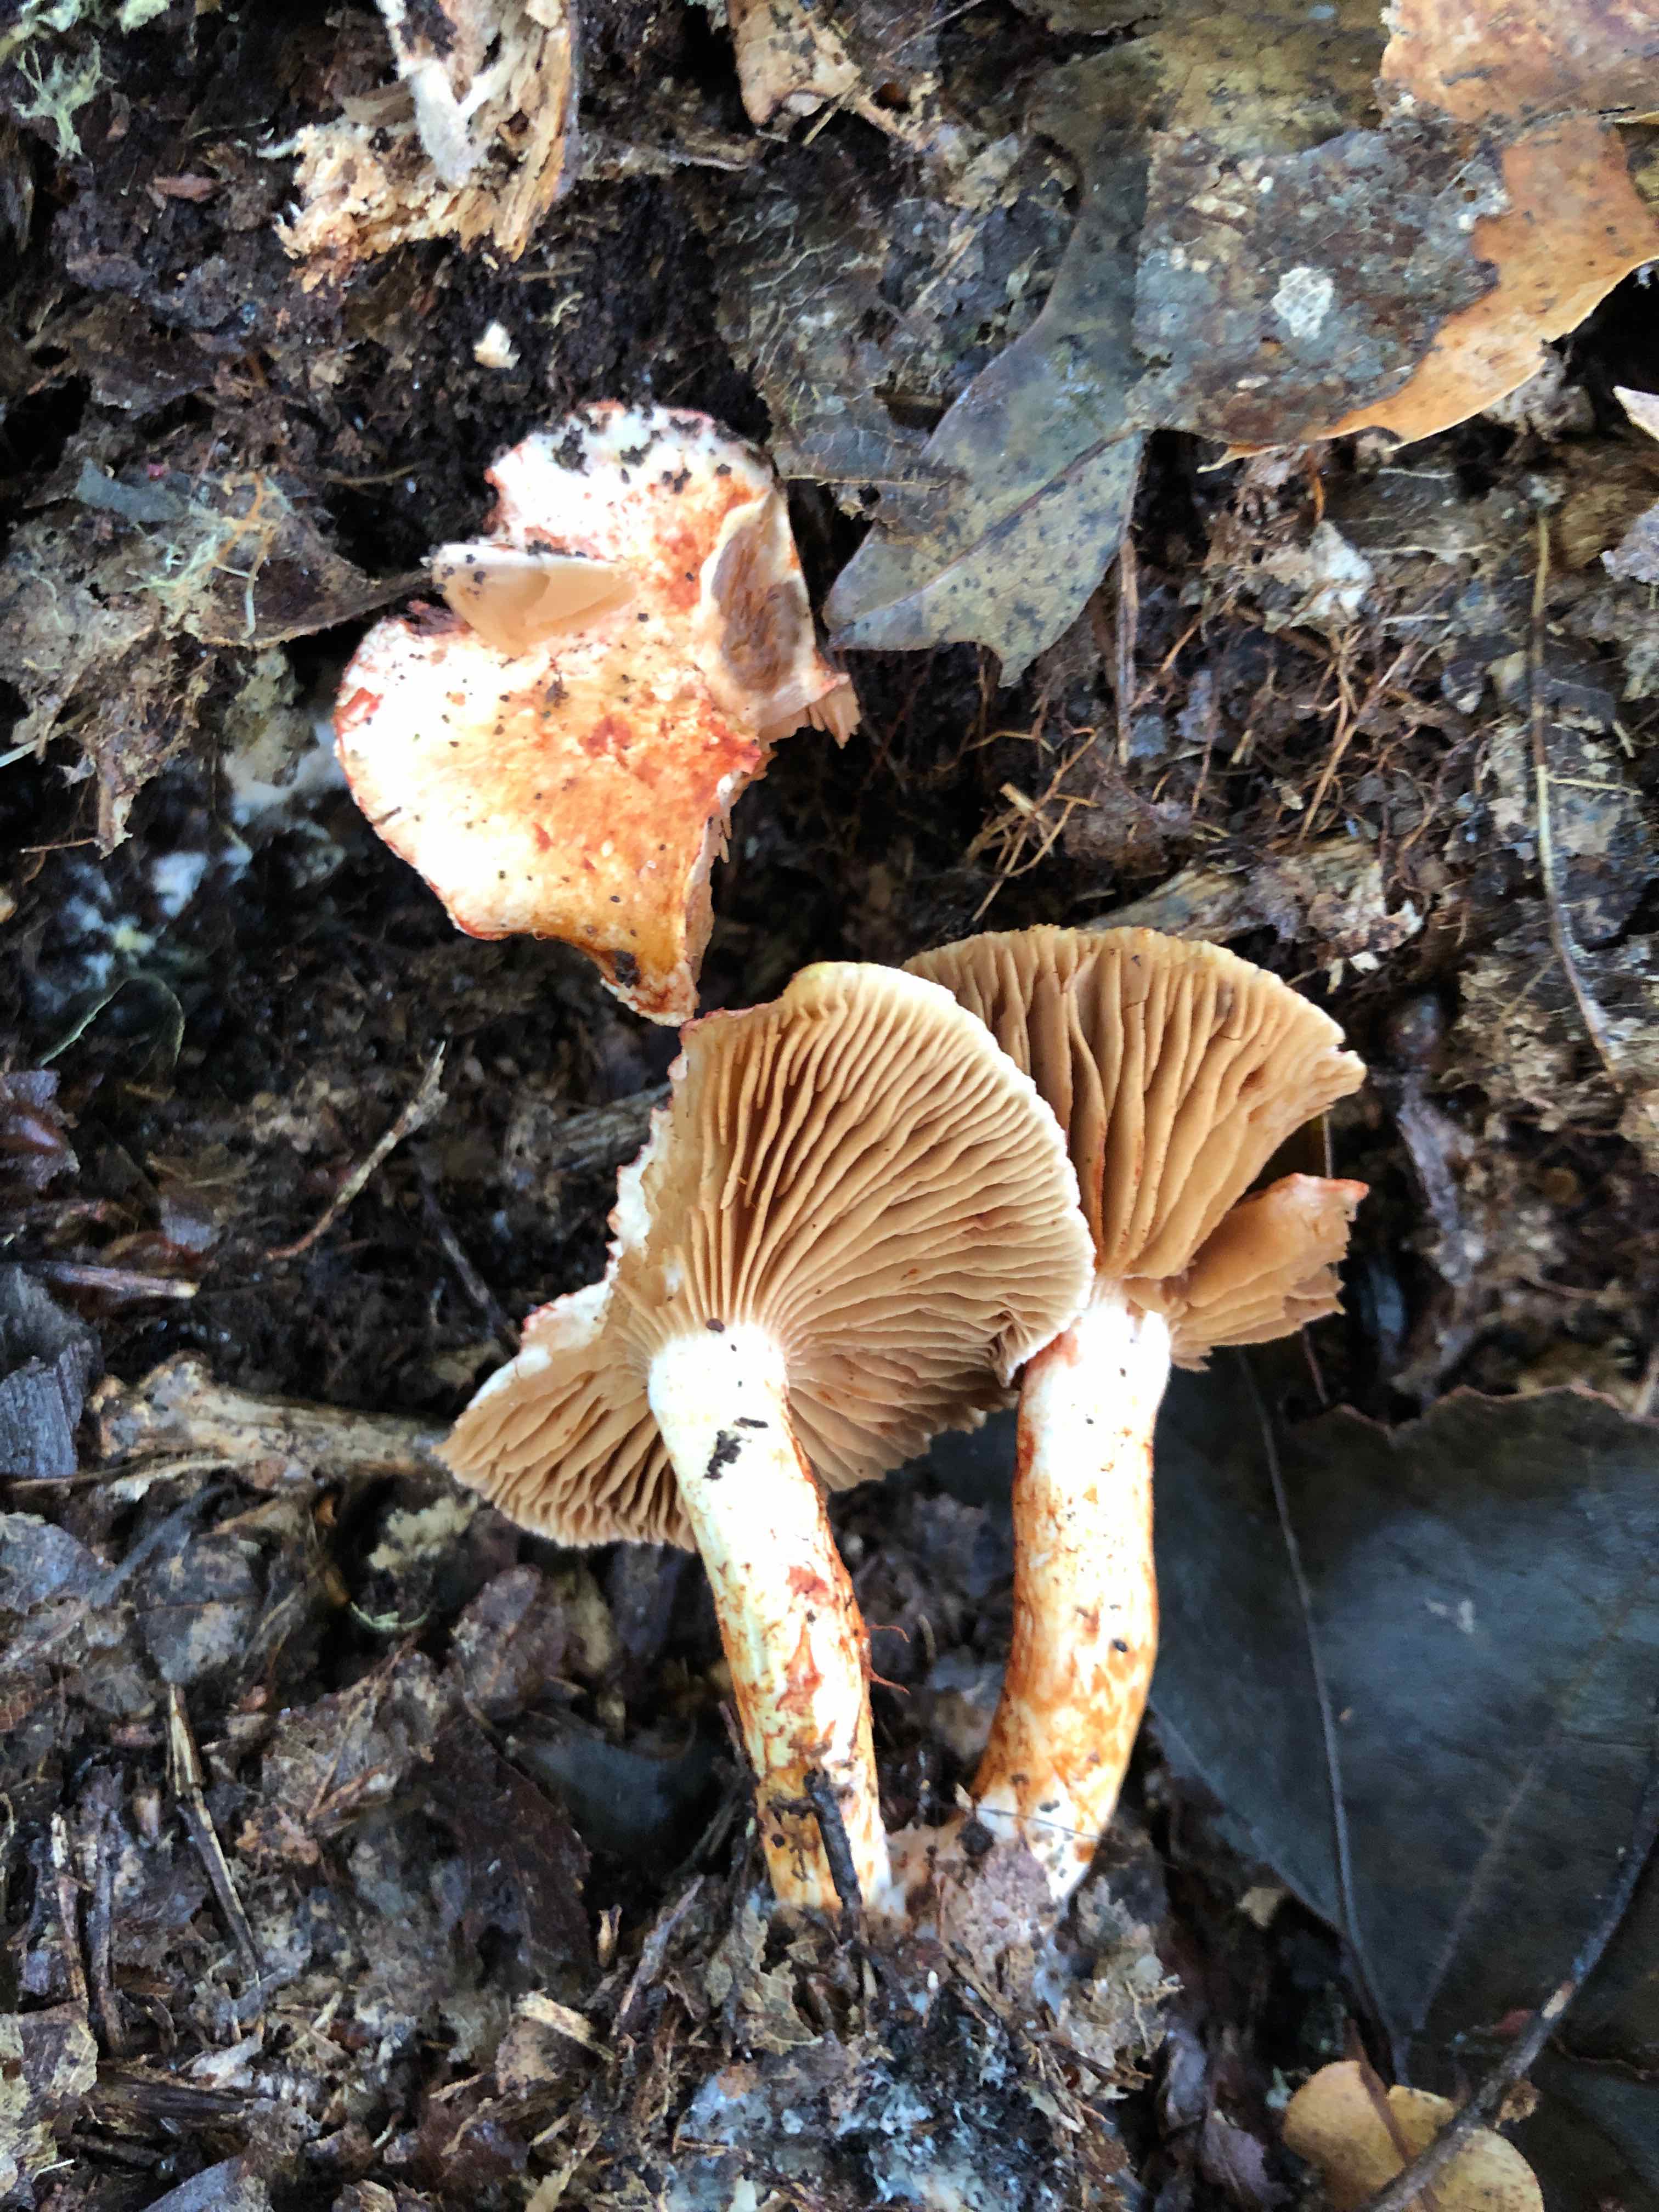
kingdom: Fungi
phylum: Basidiomycota
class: Agaricomycetes
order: Agaricales
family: Cortinariaceae
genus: Cortinarius
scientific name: Cortinarius bolaris
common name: cinnoberskællet slørhat
